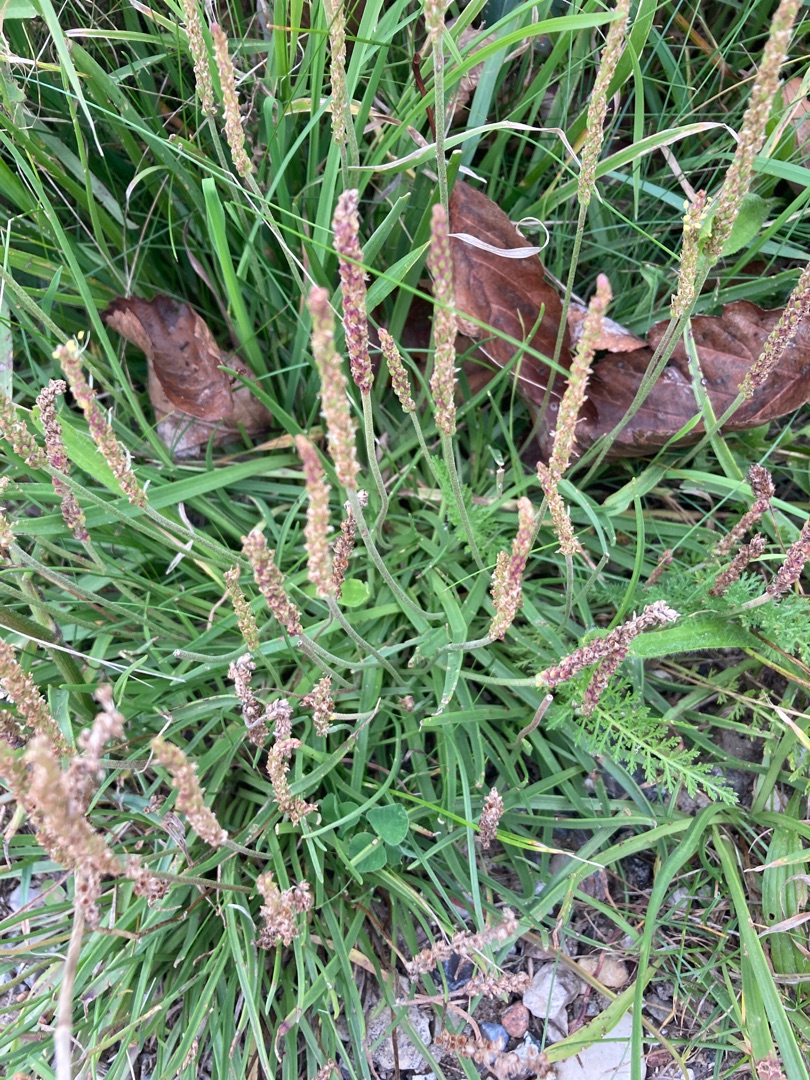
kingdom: Plantae
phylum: Tracheophyta
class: Magnoliopsida
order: Lamiales
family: Plantaginaceae
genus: Plantago
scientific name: Plantago maritima
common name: Strand-vejbred
